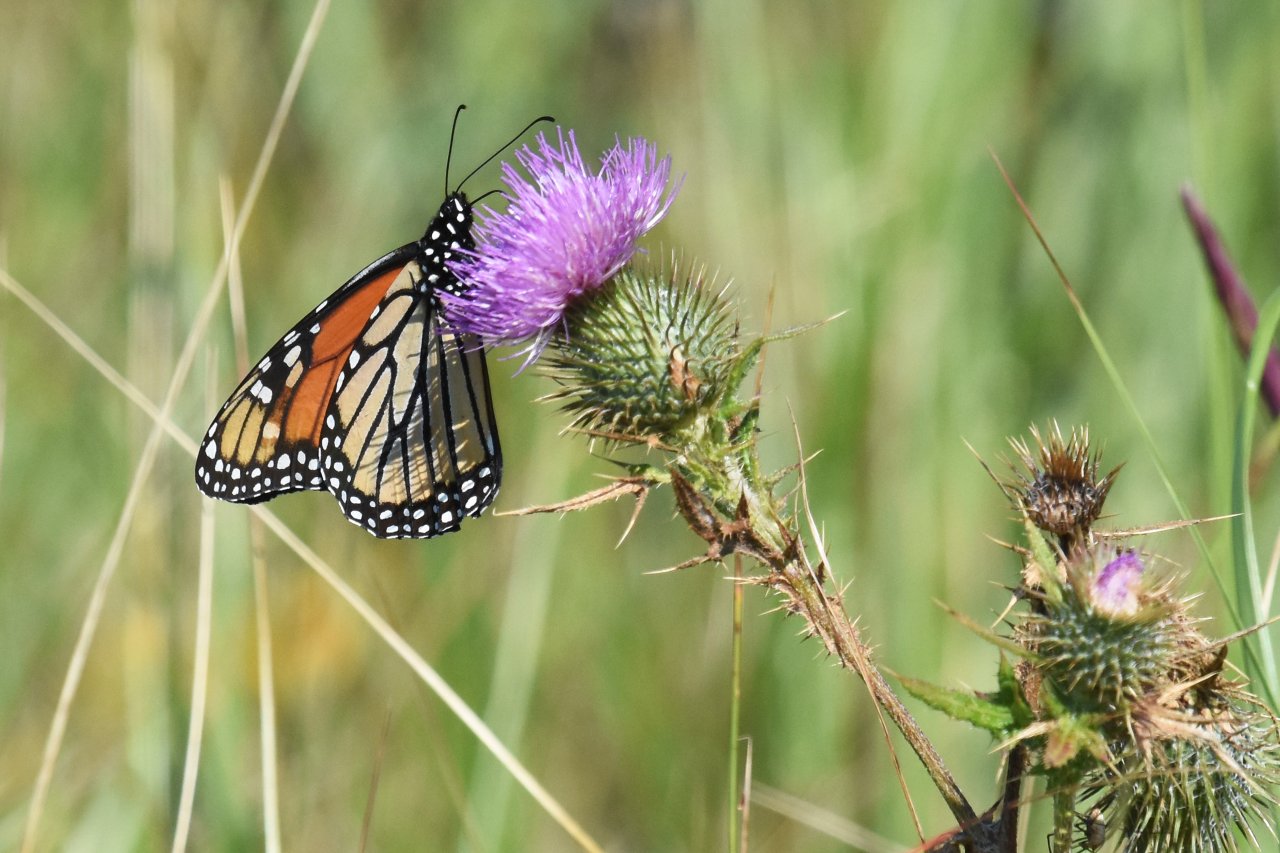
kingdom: Animalia
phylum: Arthropoda
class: Insecta
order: Lepidoptera
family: Nymphalidae
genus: Danaus
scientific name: Danaus plexippus
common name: Monarch
